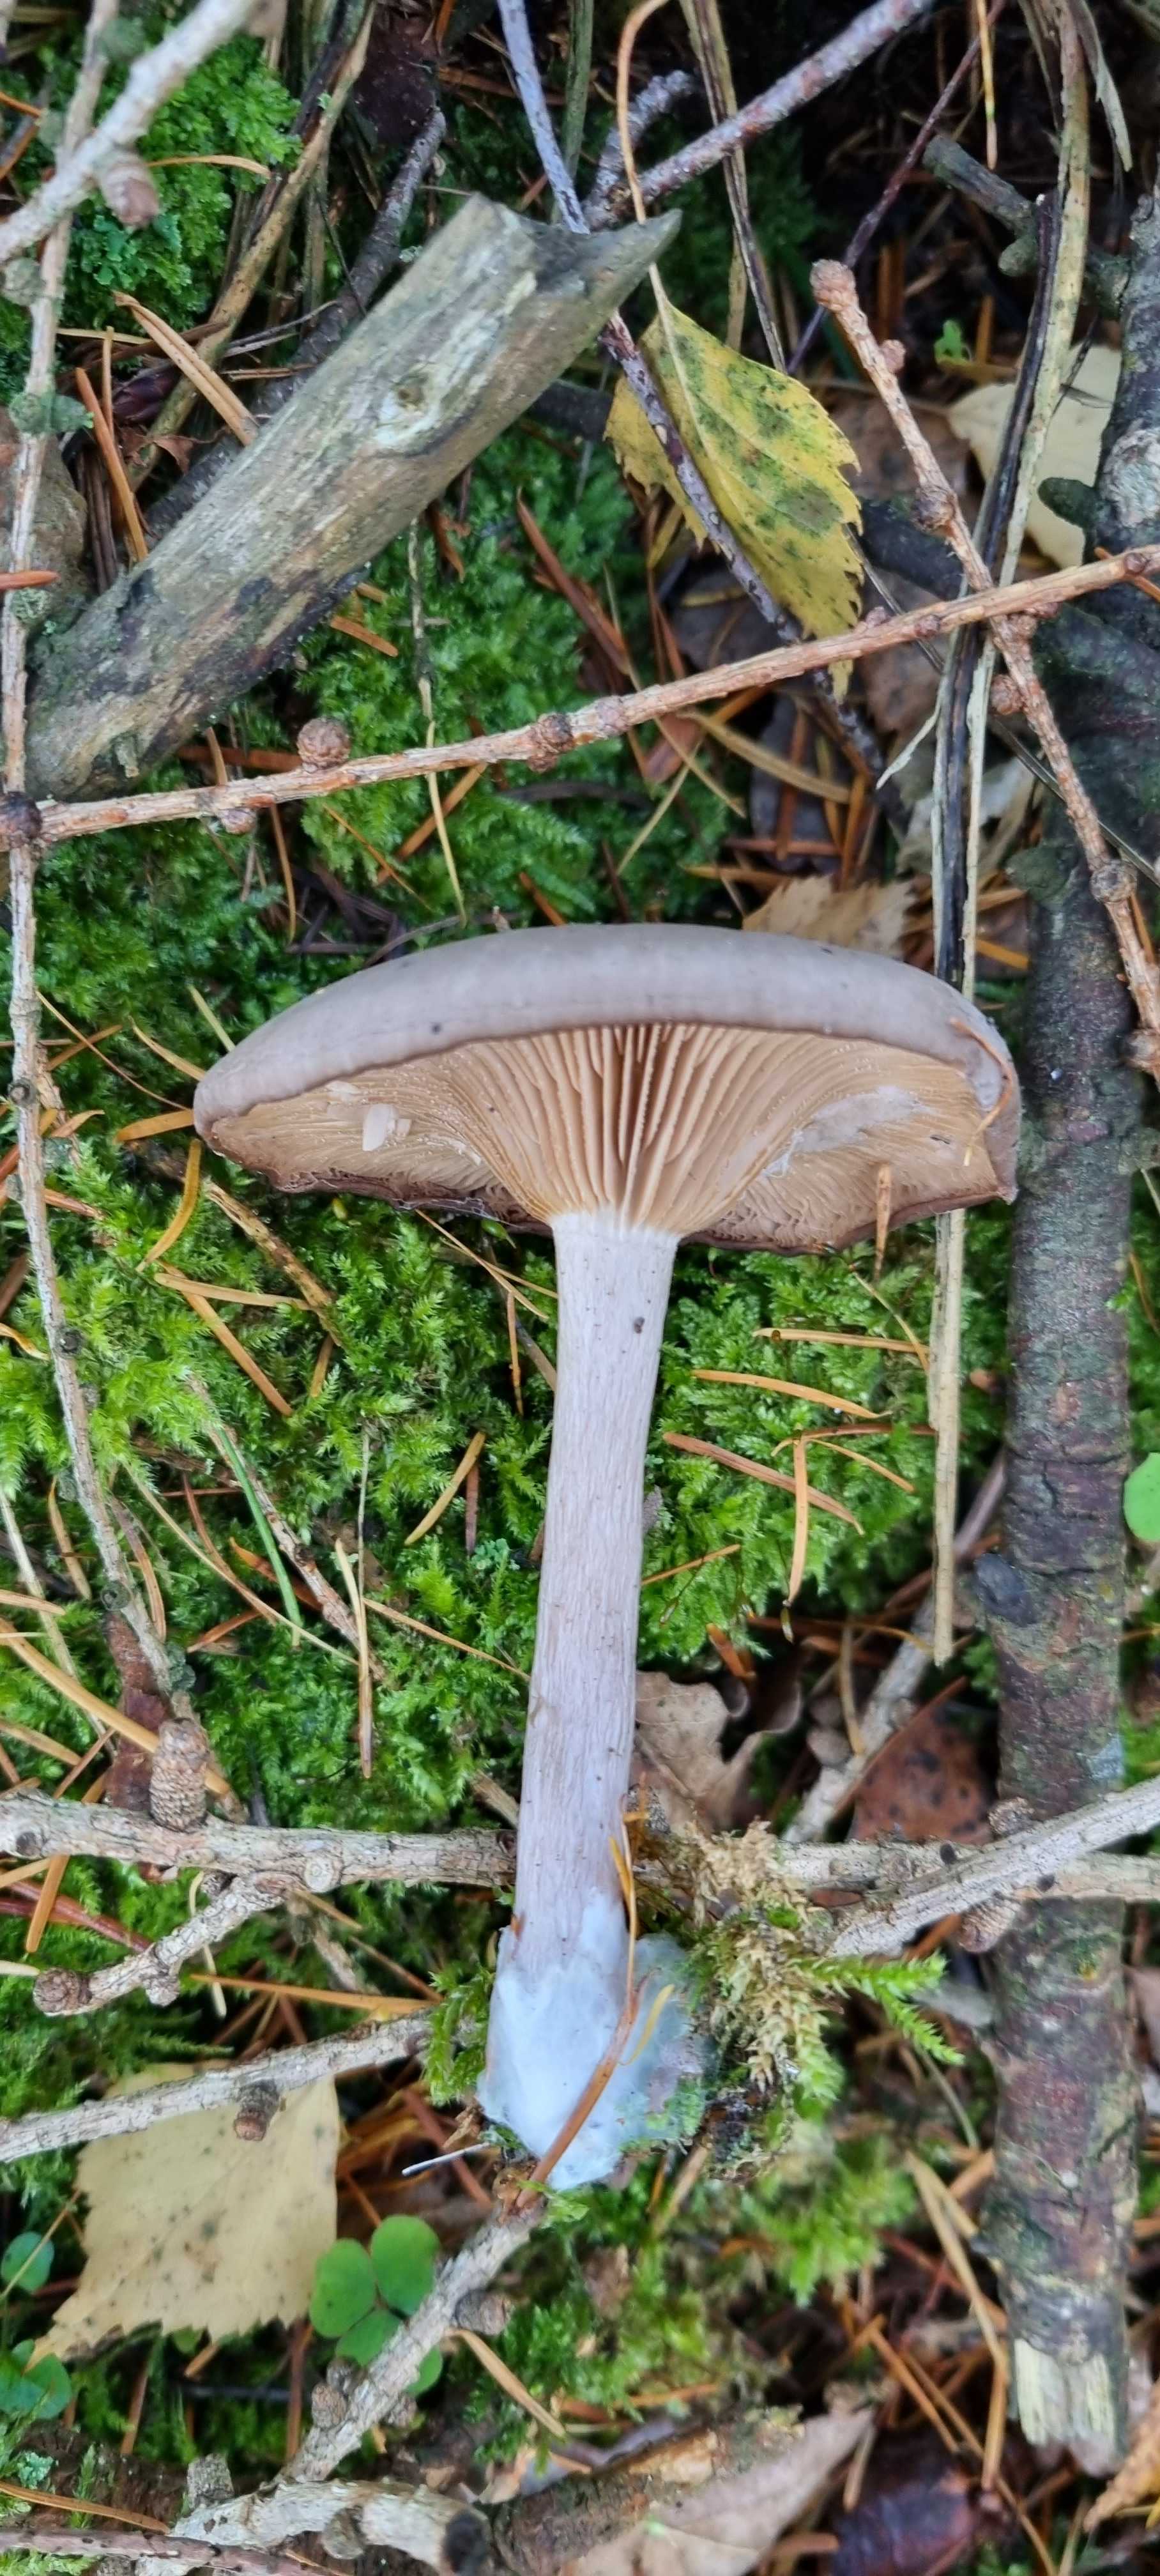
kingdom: Fungi
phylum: Basidiomycota
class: Agaricomycetes
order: Agaricales
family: Pseudoclitocybaceae
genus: Pseudoclitocybe
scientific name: Pseudoclitocybe cyathiformis
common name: almindelig bægertragthat
